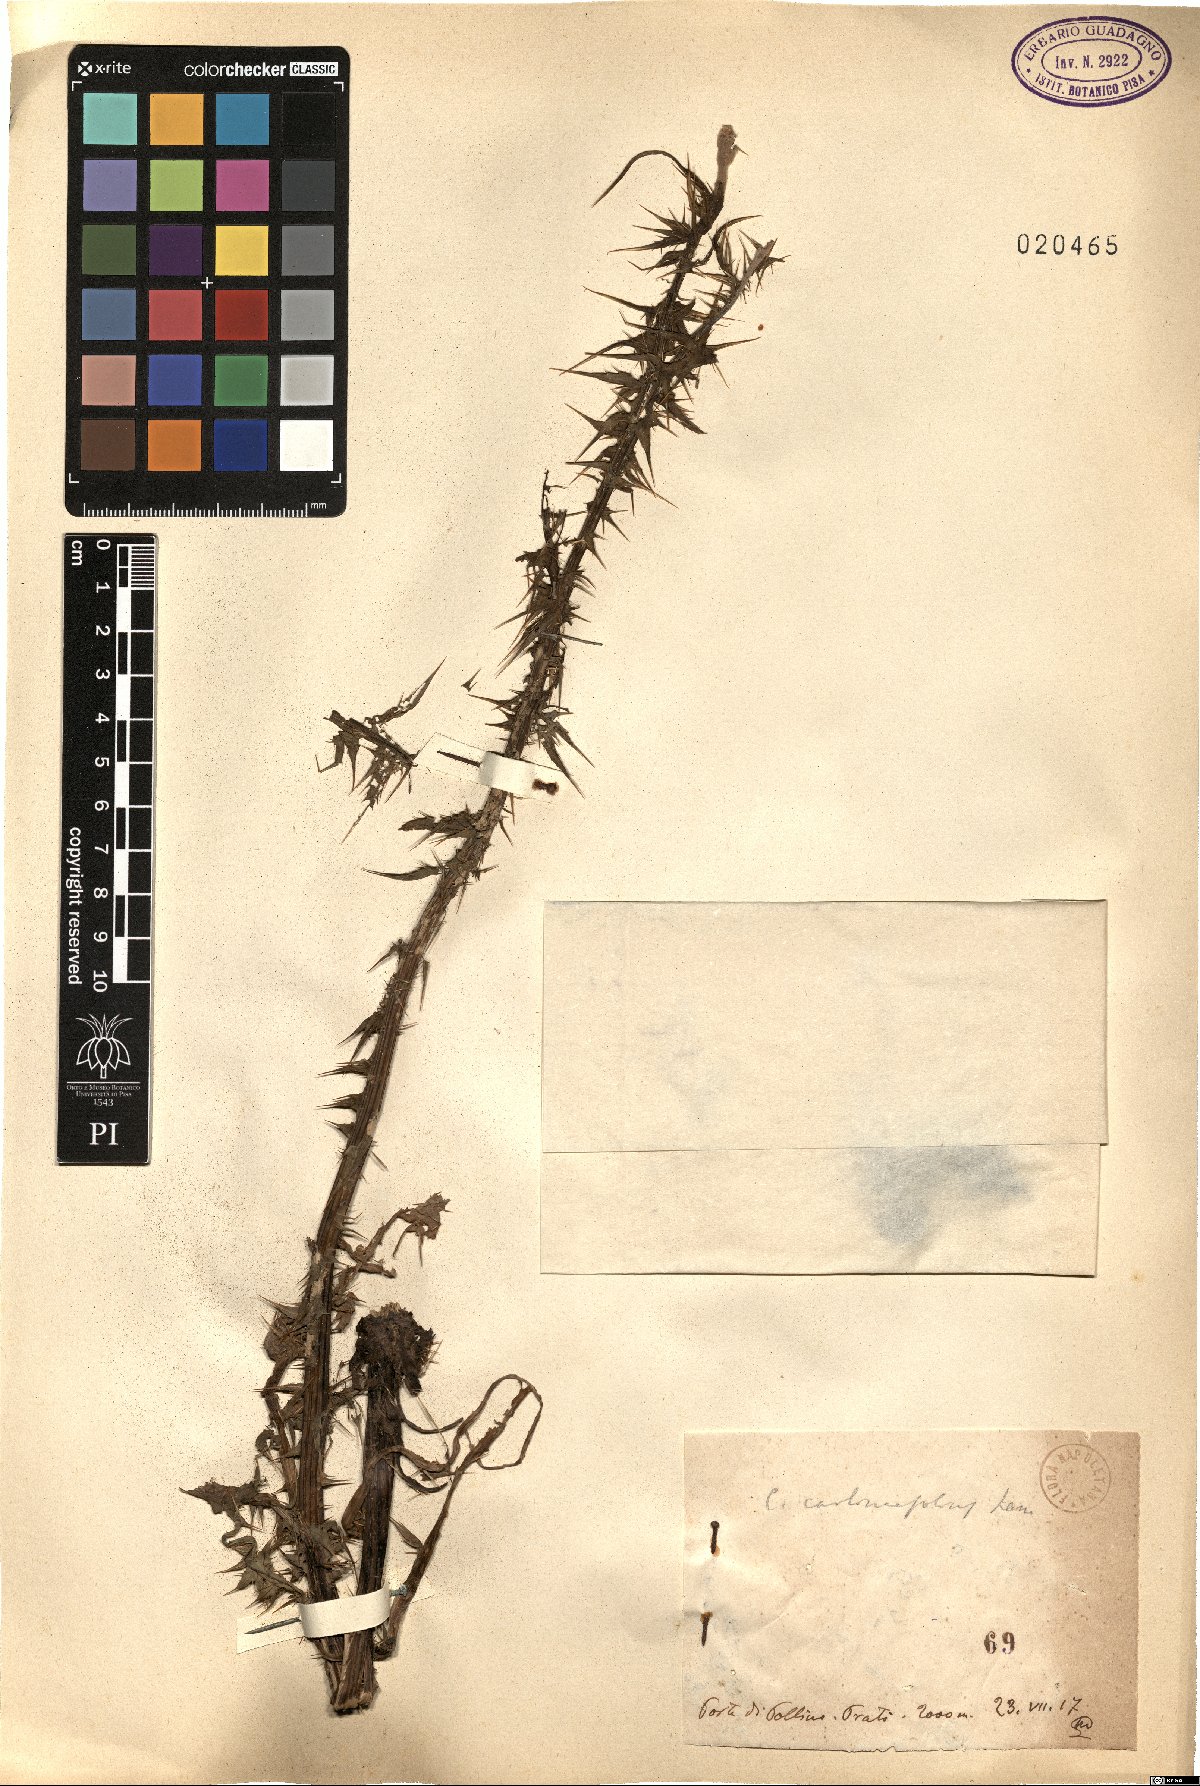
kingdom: Plantae
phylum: Tracheophyta
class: Magnoliopsida
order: Asterales
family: Asteraceae
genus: Carduus
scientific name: Carduus carlinifolius
